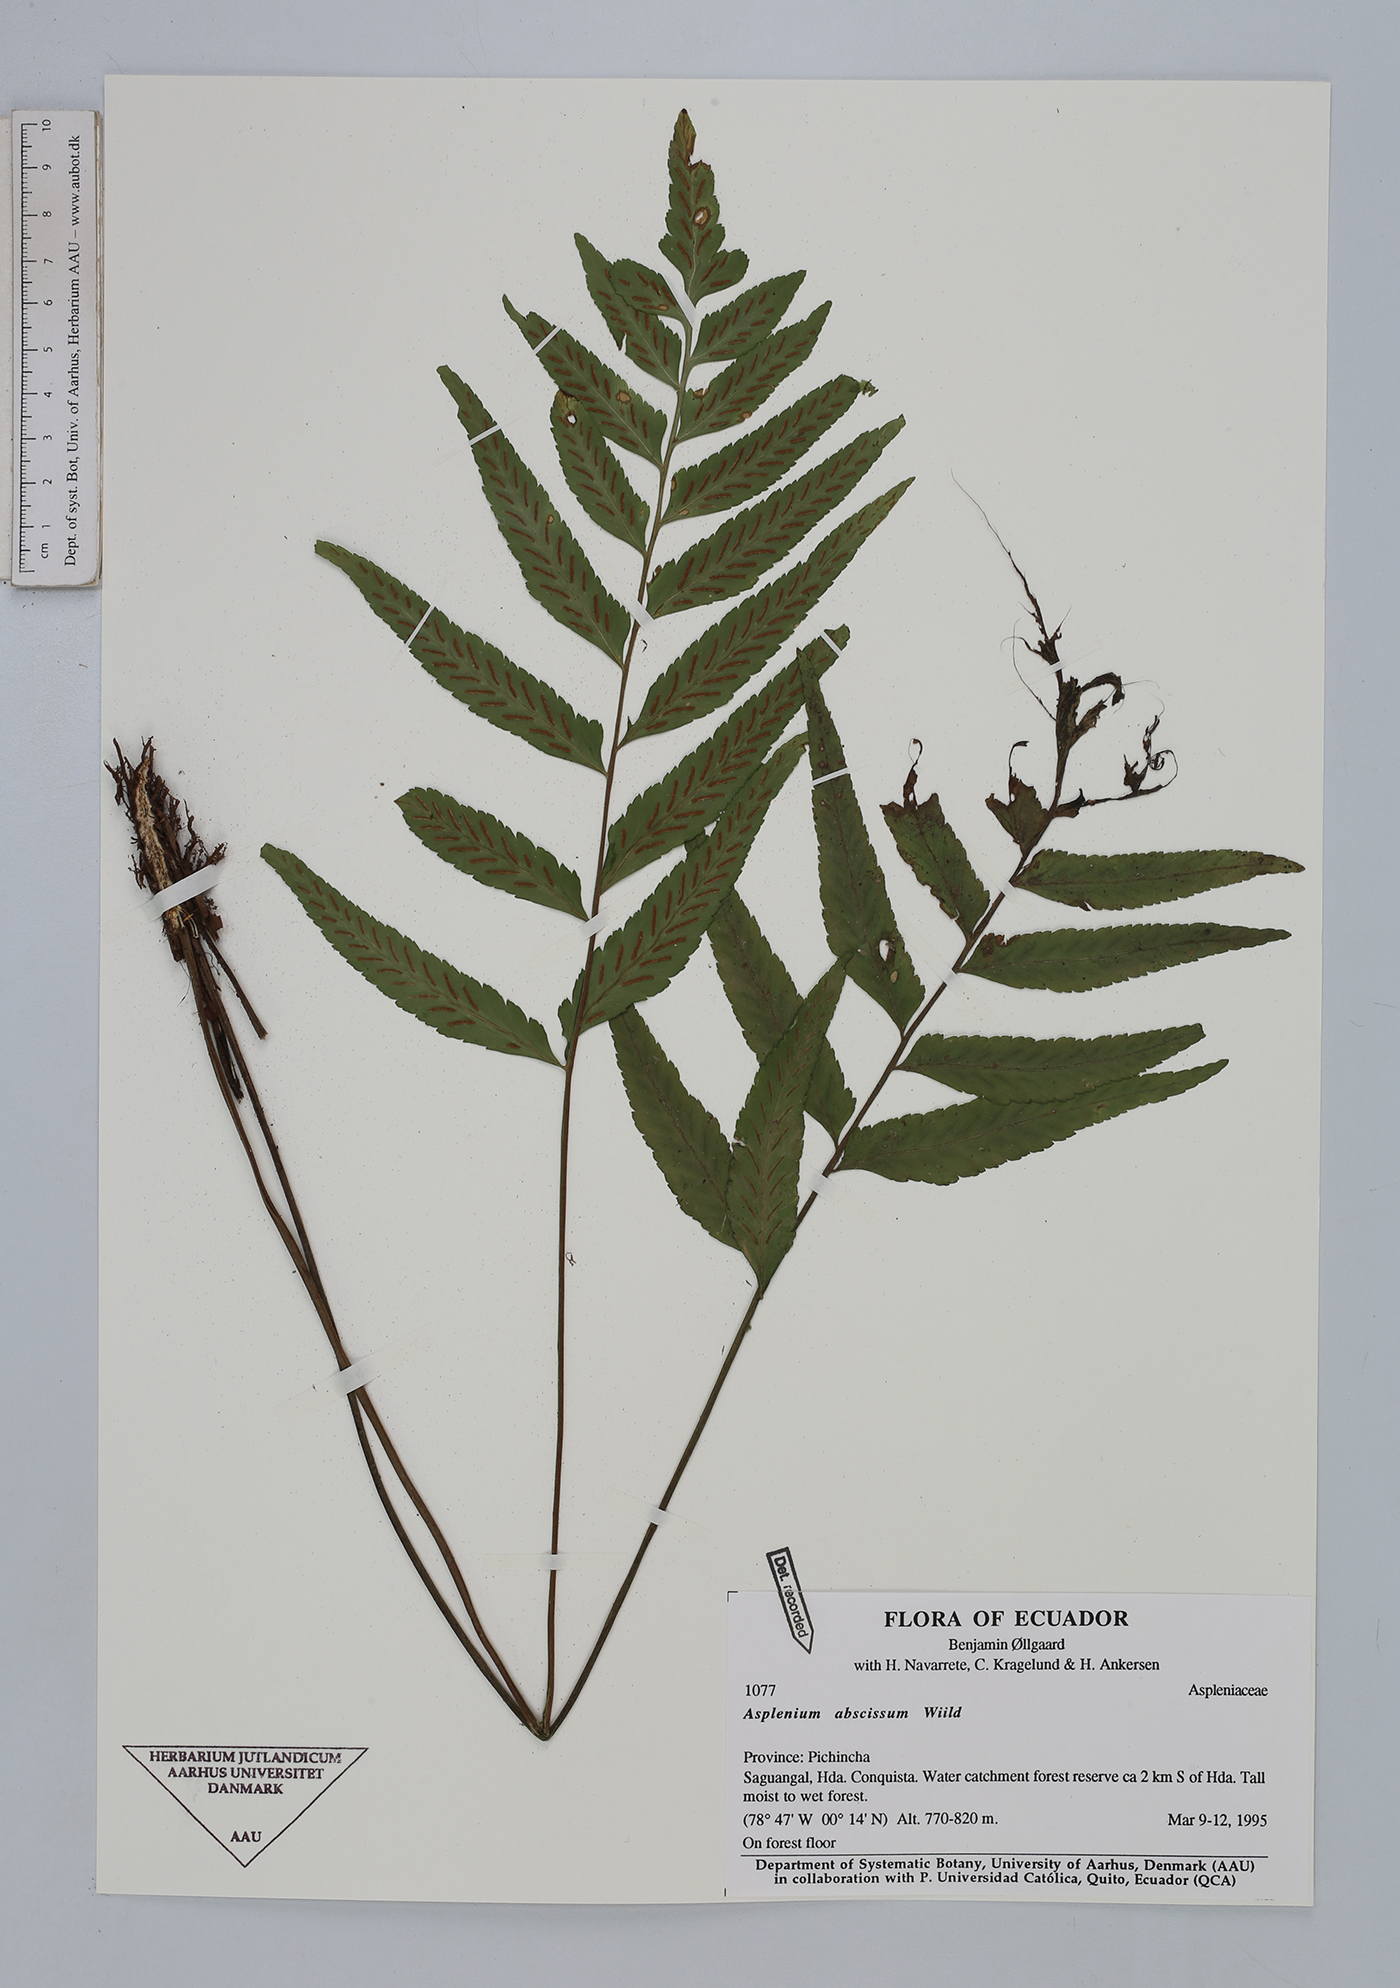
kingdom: Plantae
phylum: Tracheophyta
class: Polypodiopsida
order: Polypodiales
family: Aspleniaceae
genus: Asplenium
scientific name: Asplenium abscissum
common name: Cutleaf spleenwort
